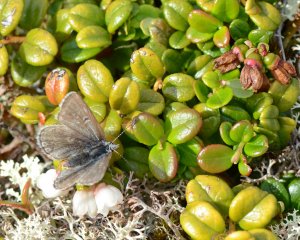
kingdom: Animalia
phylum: Arthropoda
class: Insecta
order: Lepidoptera
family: Lycaenidae
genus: Agriades
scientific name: Agriades glandon
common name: Arctic Blue
